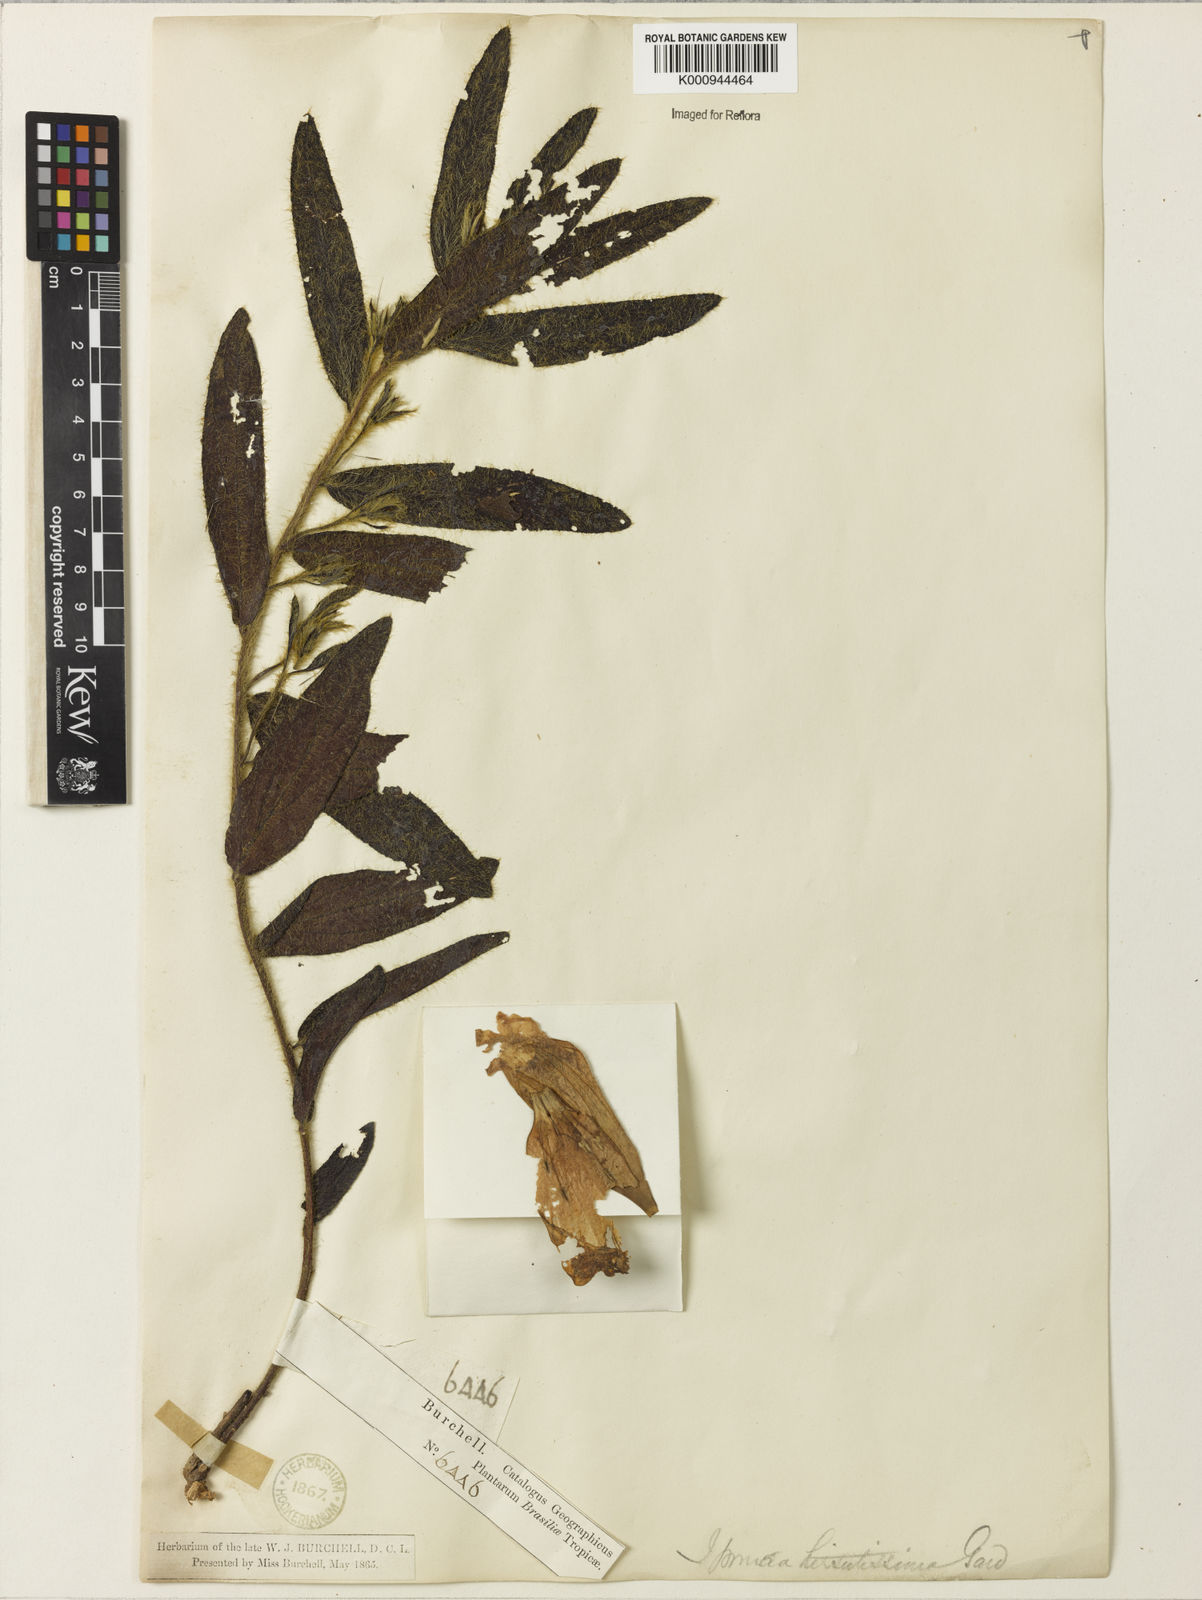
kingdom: Plantae
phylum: Tracheophyta
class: Magnoliopsida
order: Solanales
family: Convolvulaceae
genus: Ipomoea
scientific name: Ipomoea hirsutissima
